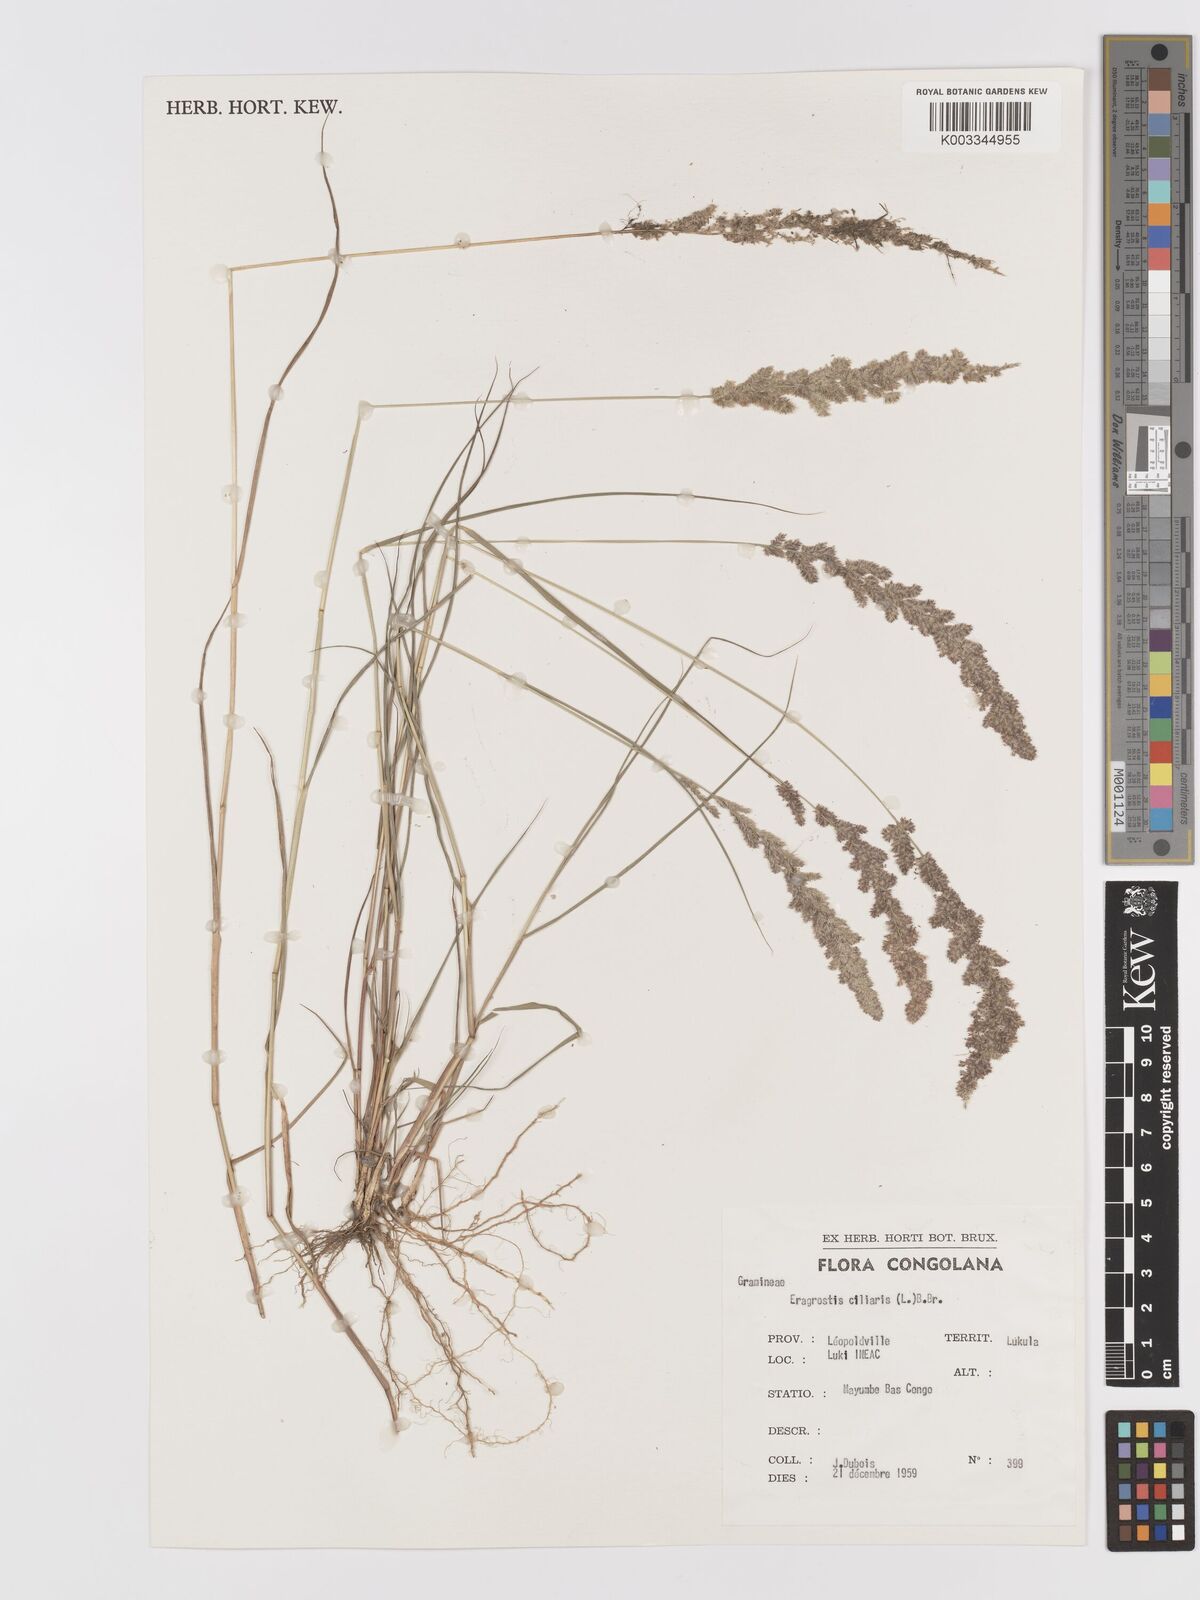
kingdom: Plantae
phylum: Tracheophyta
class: Liliopsida
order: Poales
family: Poaceae
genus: Eragrostis
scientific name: Eragrostis ciliaris
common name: Gophertail lovegrass
